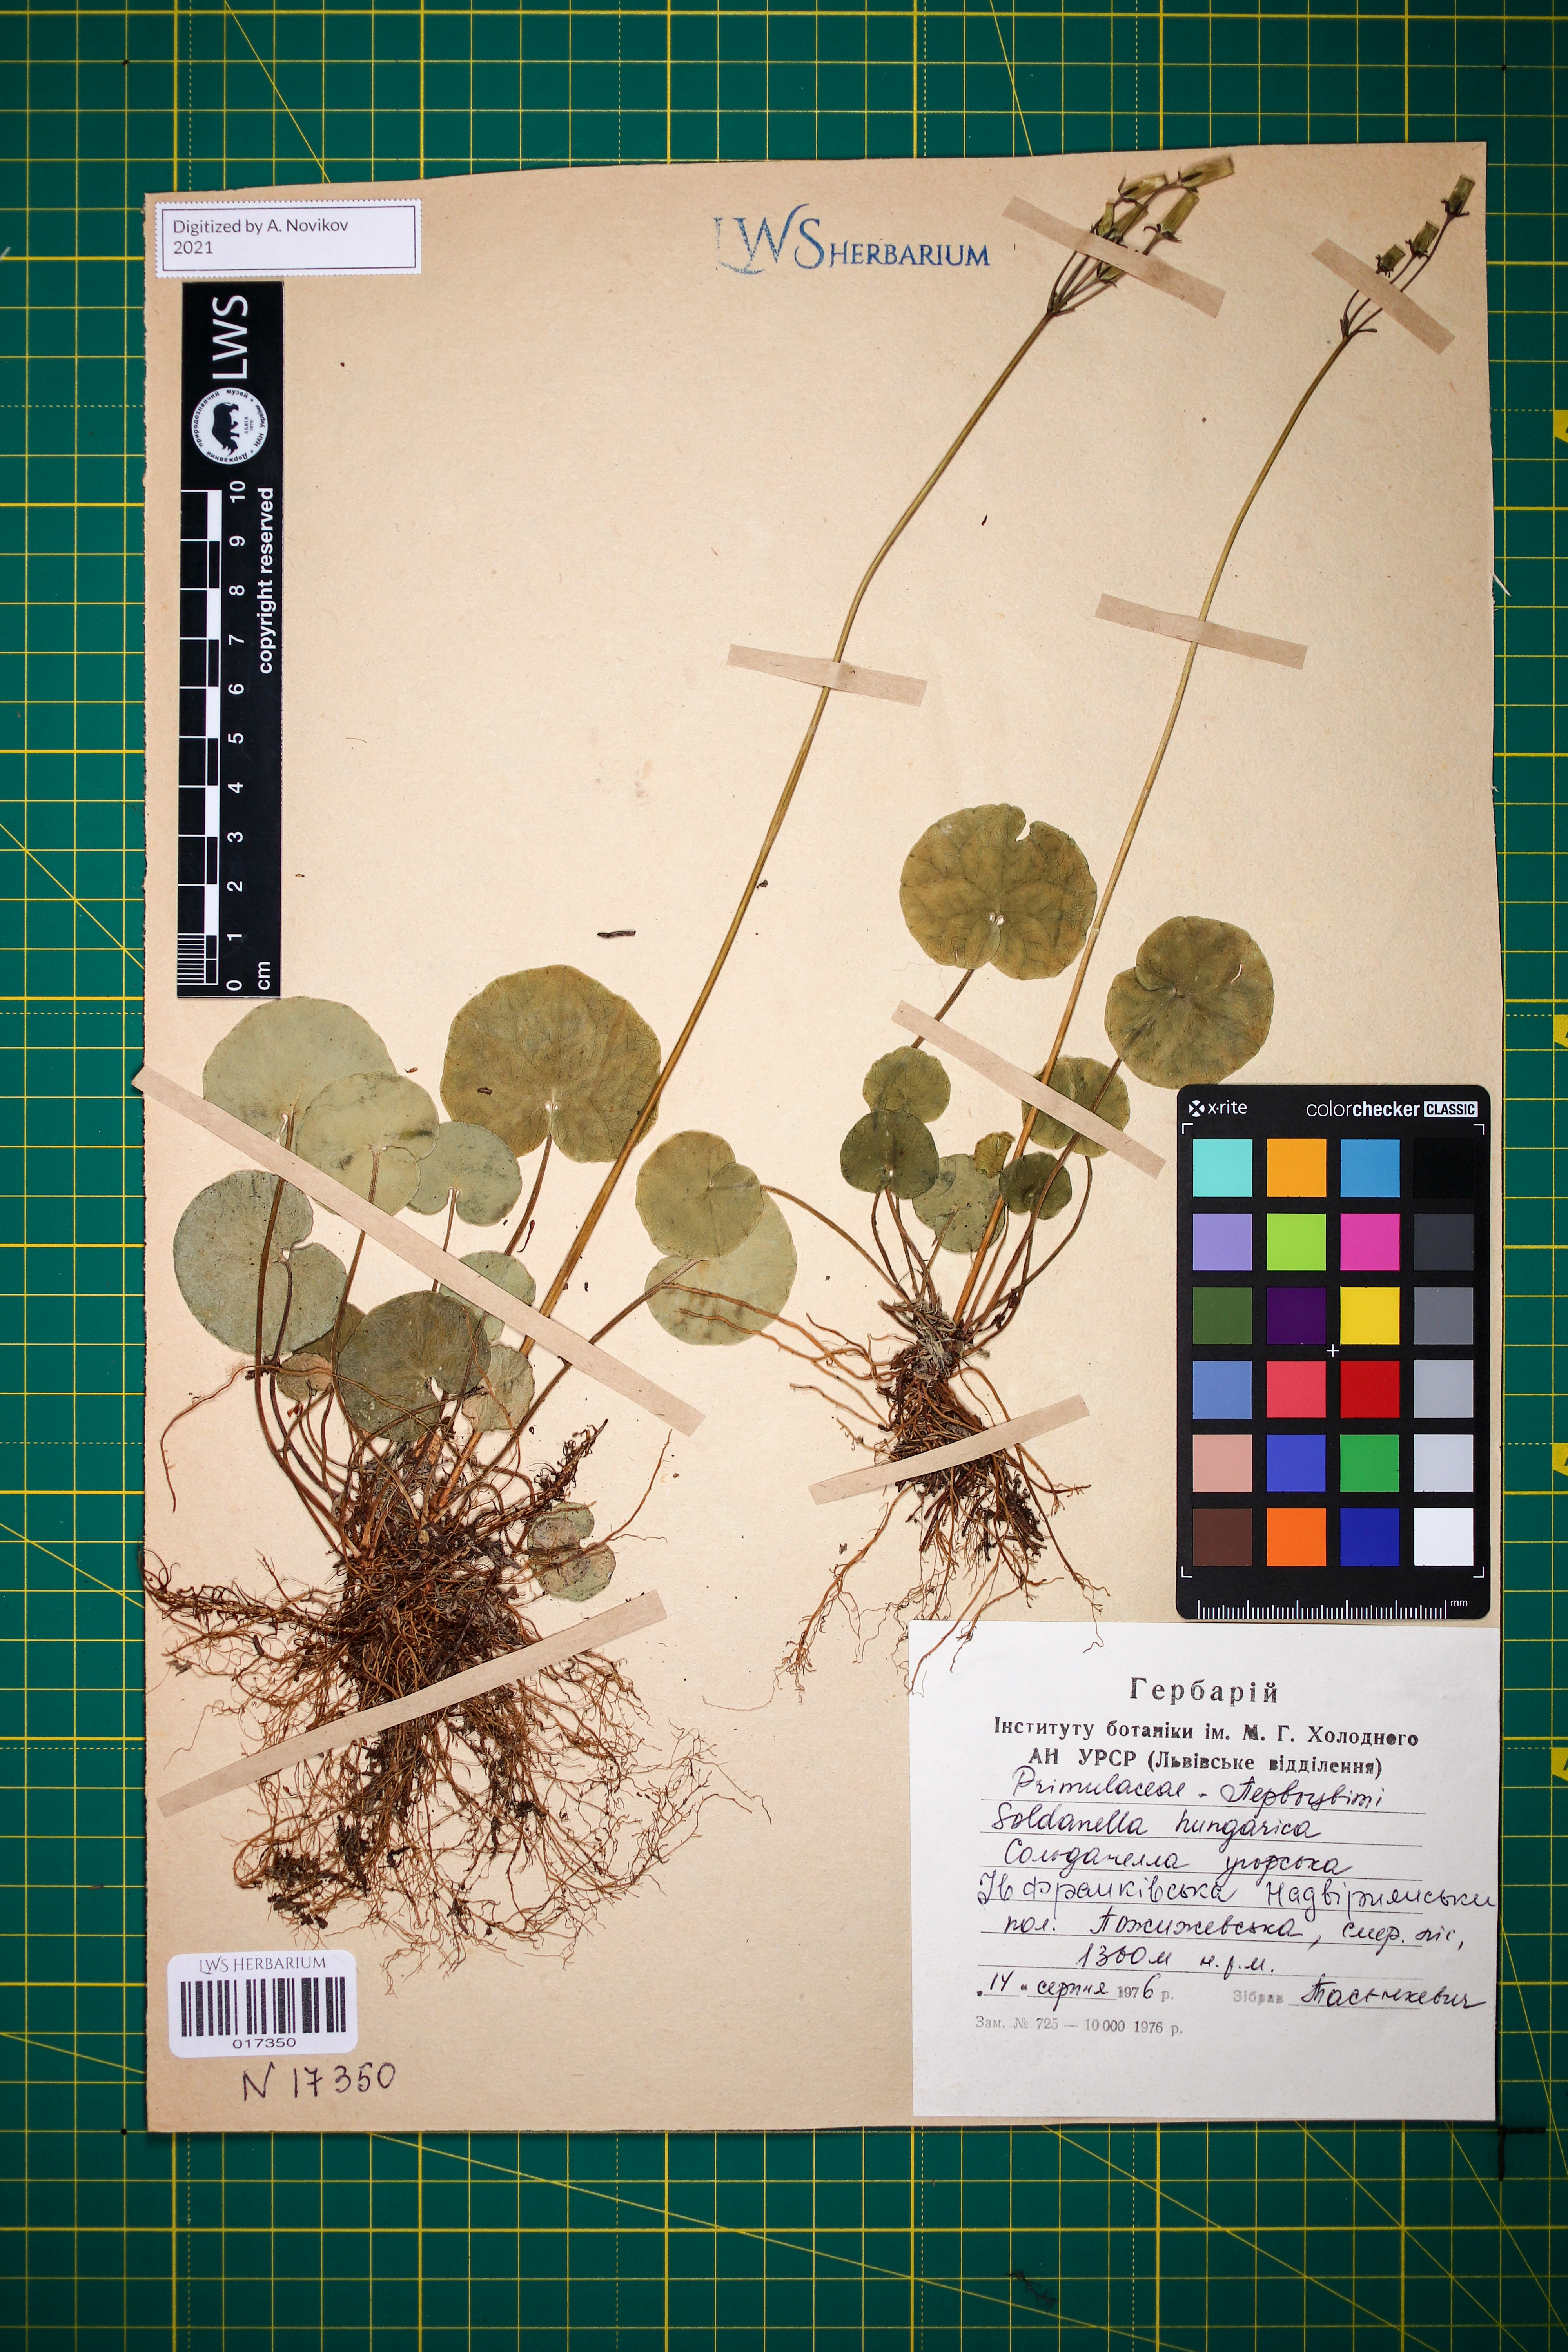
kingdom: Plantae
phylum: Tracheophyta
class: Magnoliopsida
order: Ericales
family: Primulaceae
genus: Soldanella
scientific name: Soldanella hungarica
